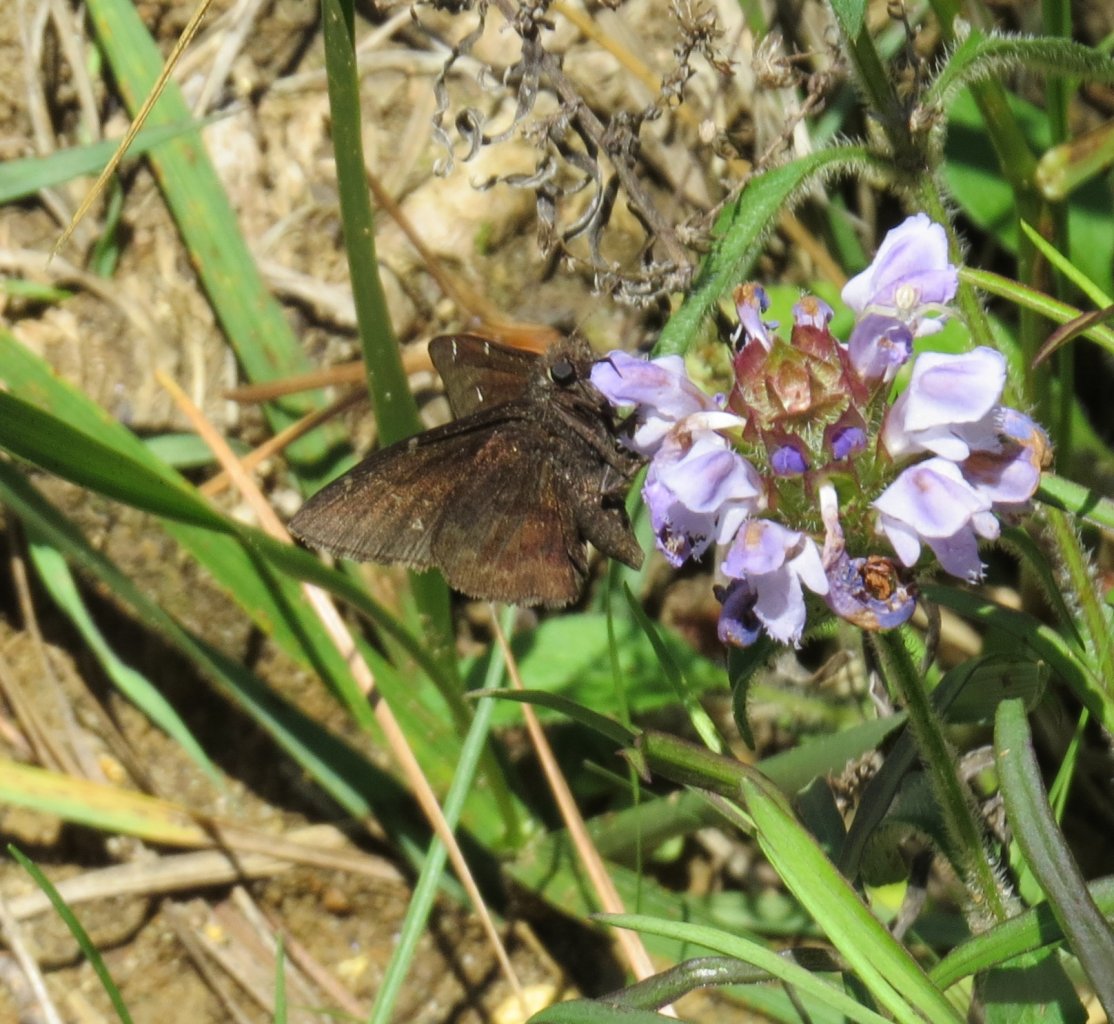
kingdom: Animalia
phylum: Arthropoda
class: Insecta
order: Lepidoptera
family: Hesperiidae
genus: Autochton
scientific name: Autochton
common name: Northern Cloudywing
